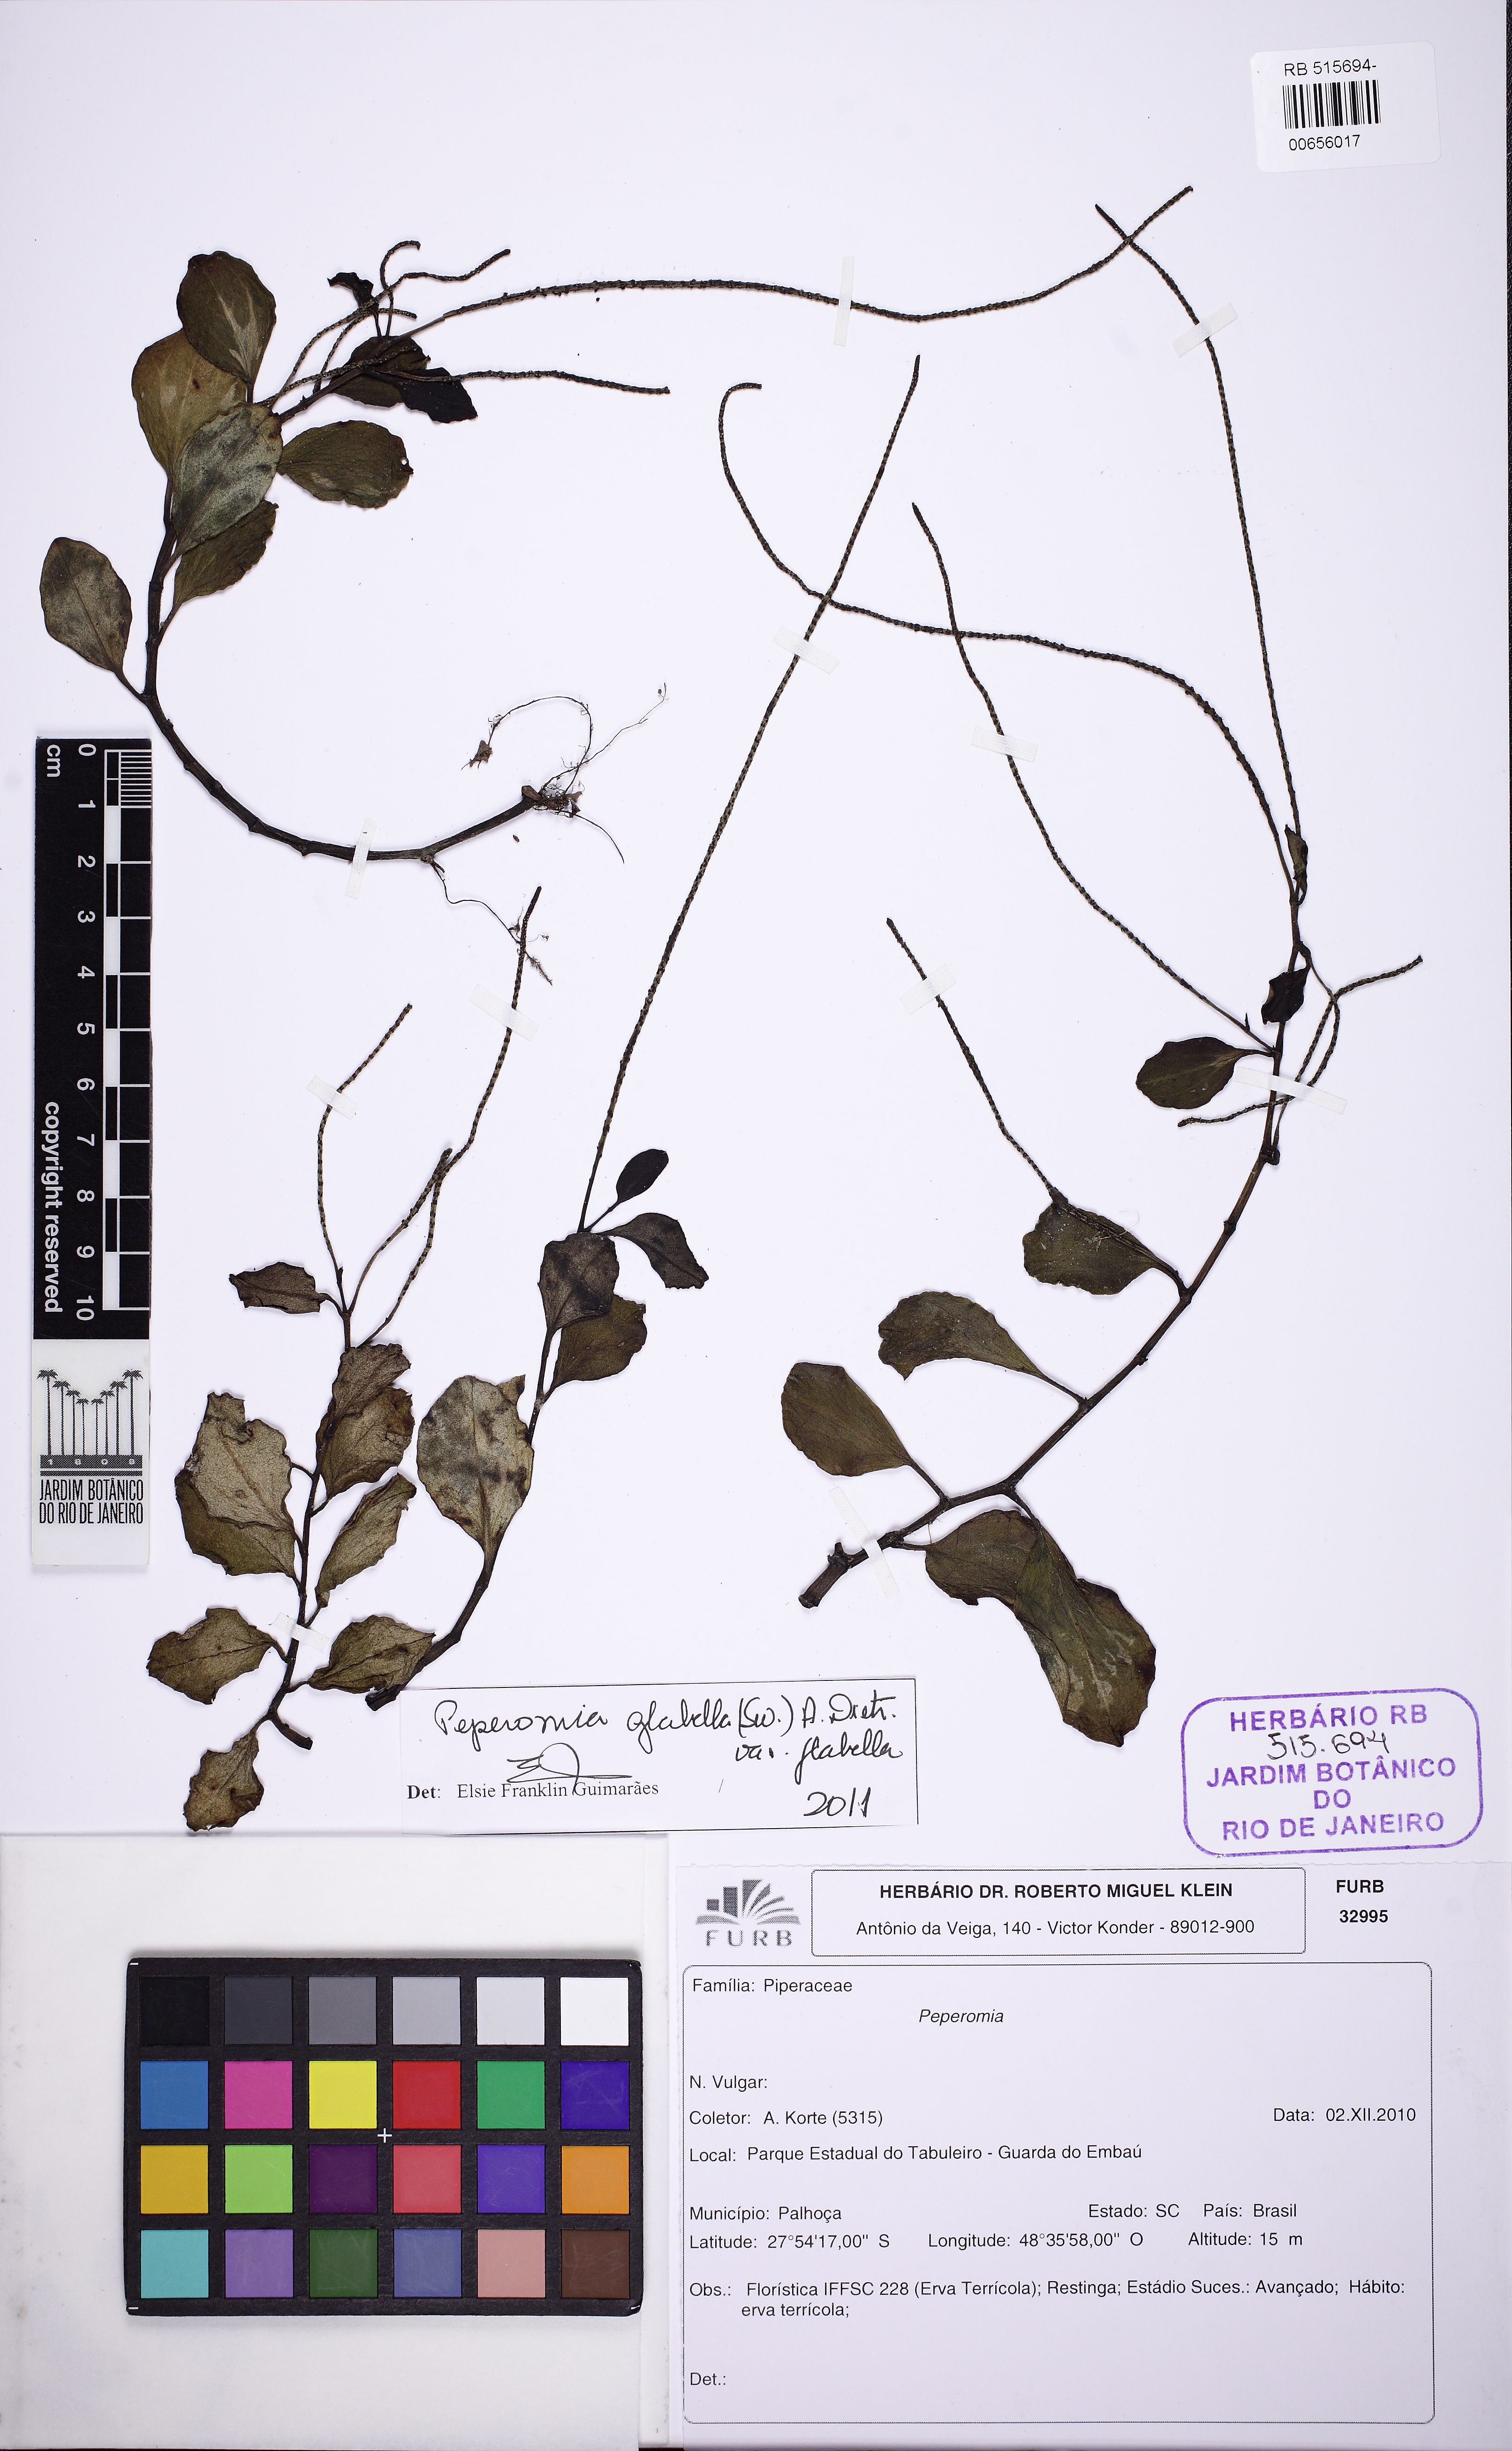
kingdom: Plantae
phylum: Tracheophyta
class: Magnoliopsida
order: Piperales
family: Piperaceae
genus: Peperomia
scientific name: Peperomia glabella
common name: Cypress peperomia
